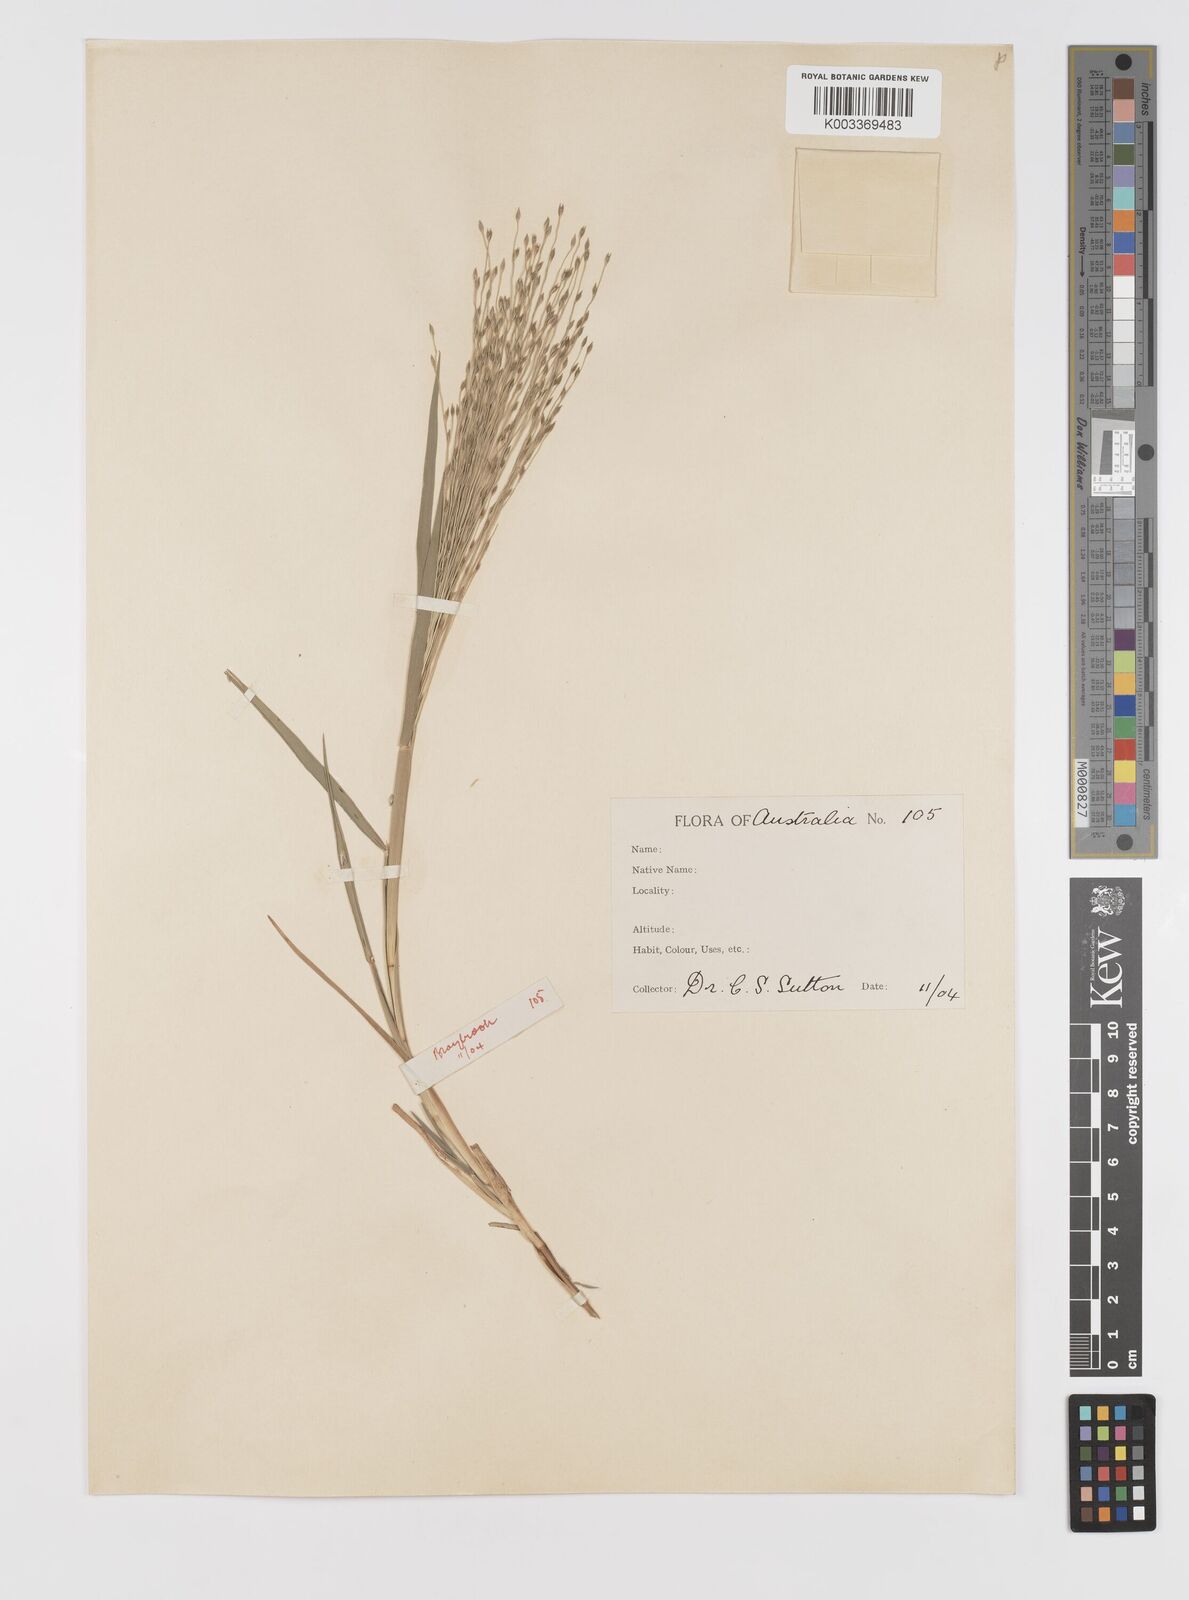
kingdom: Plantae
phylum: Tracheophyta
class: Liliopsida
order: Poales
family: Poaceae
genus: Walwhalleya
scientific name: Walwhalleya proluta
